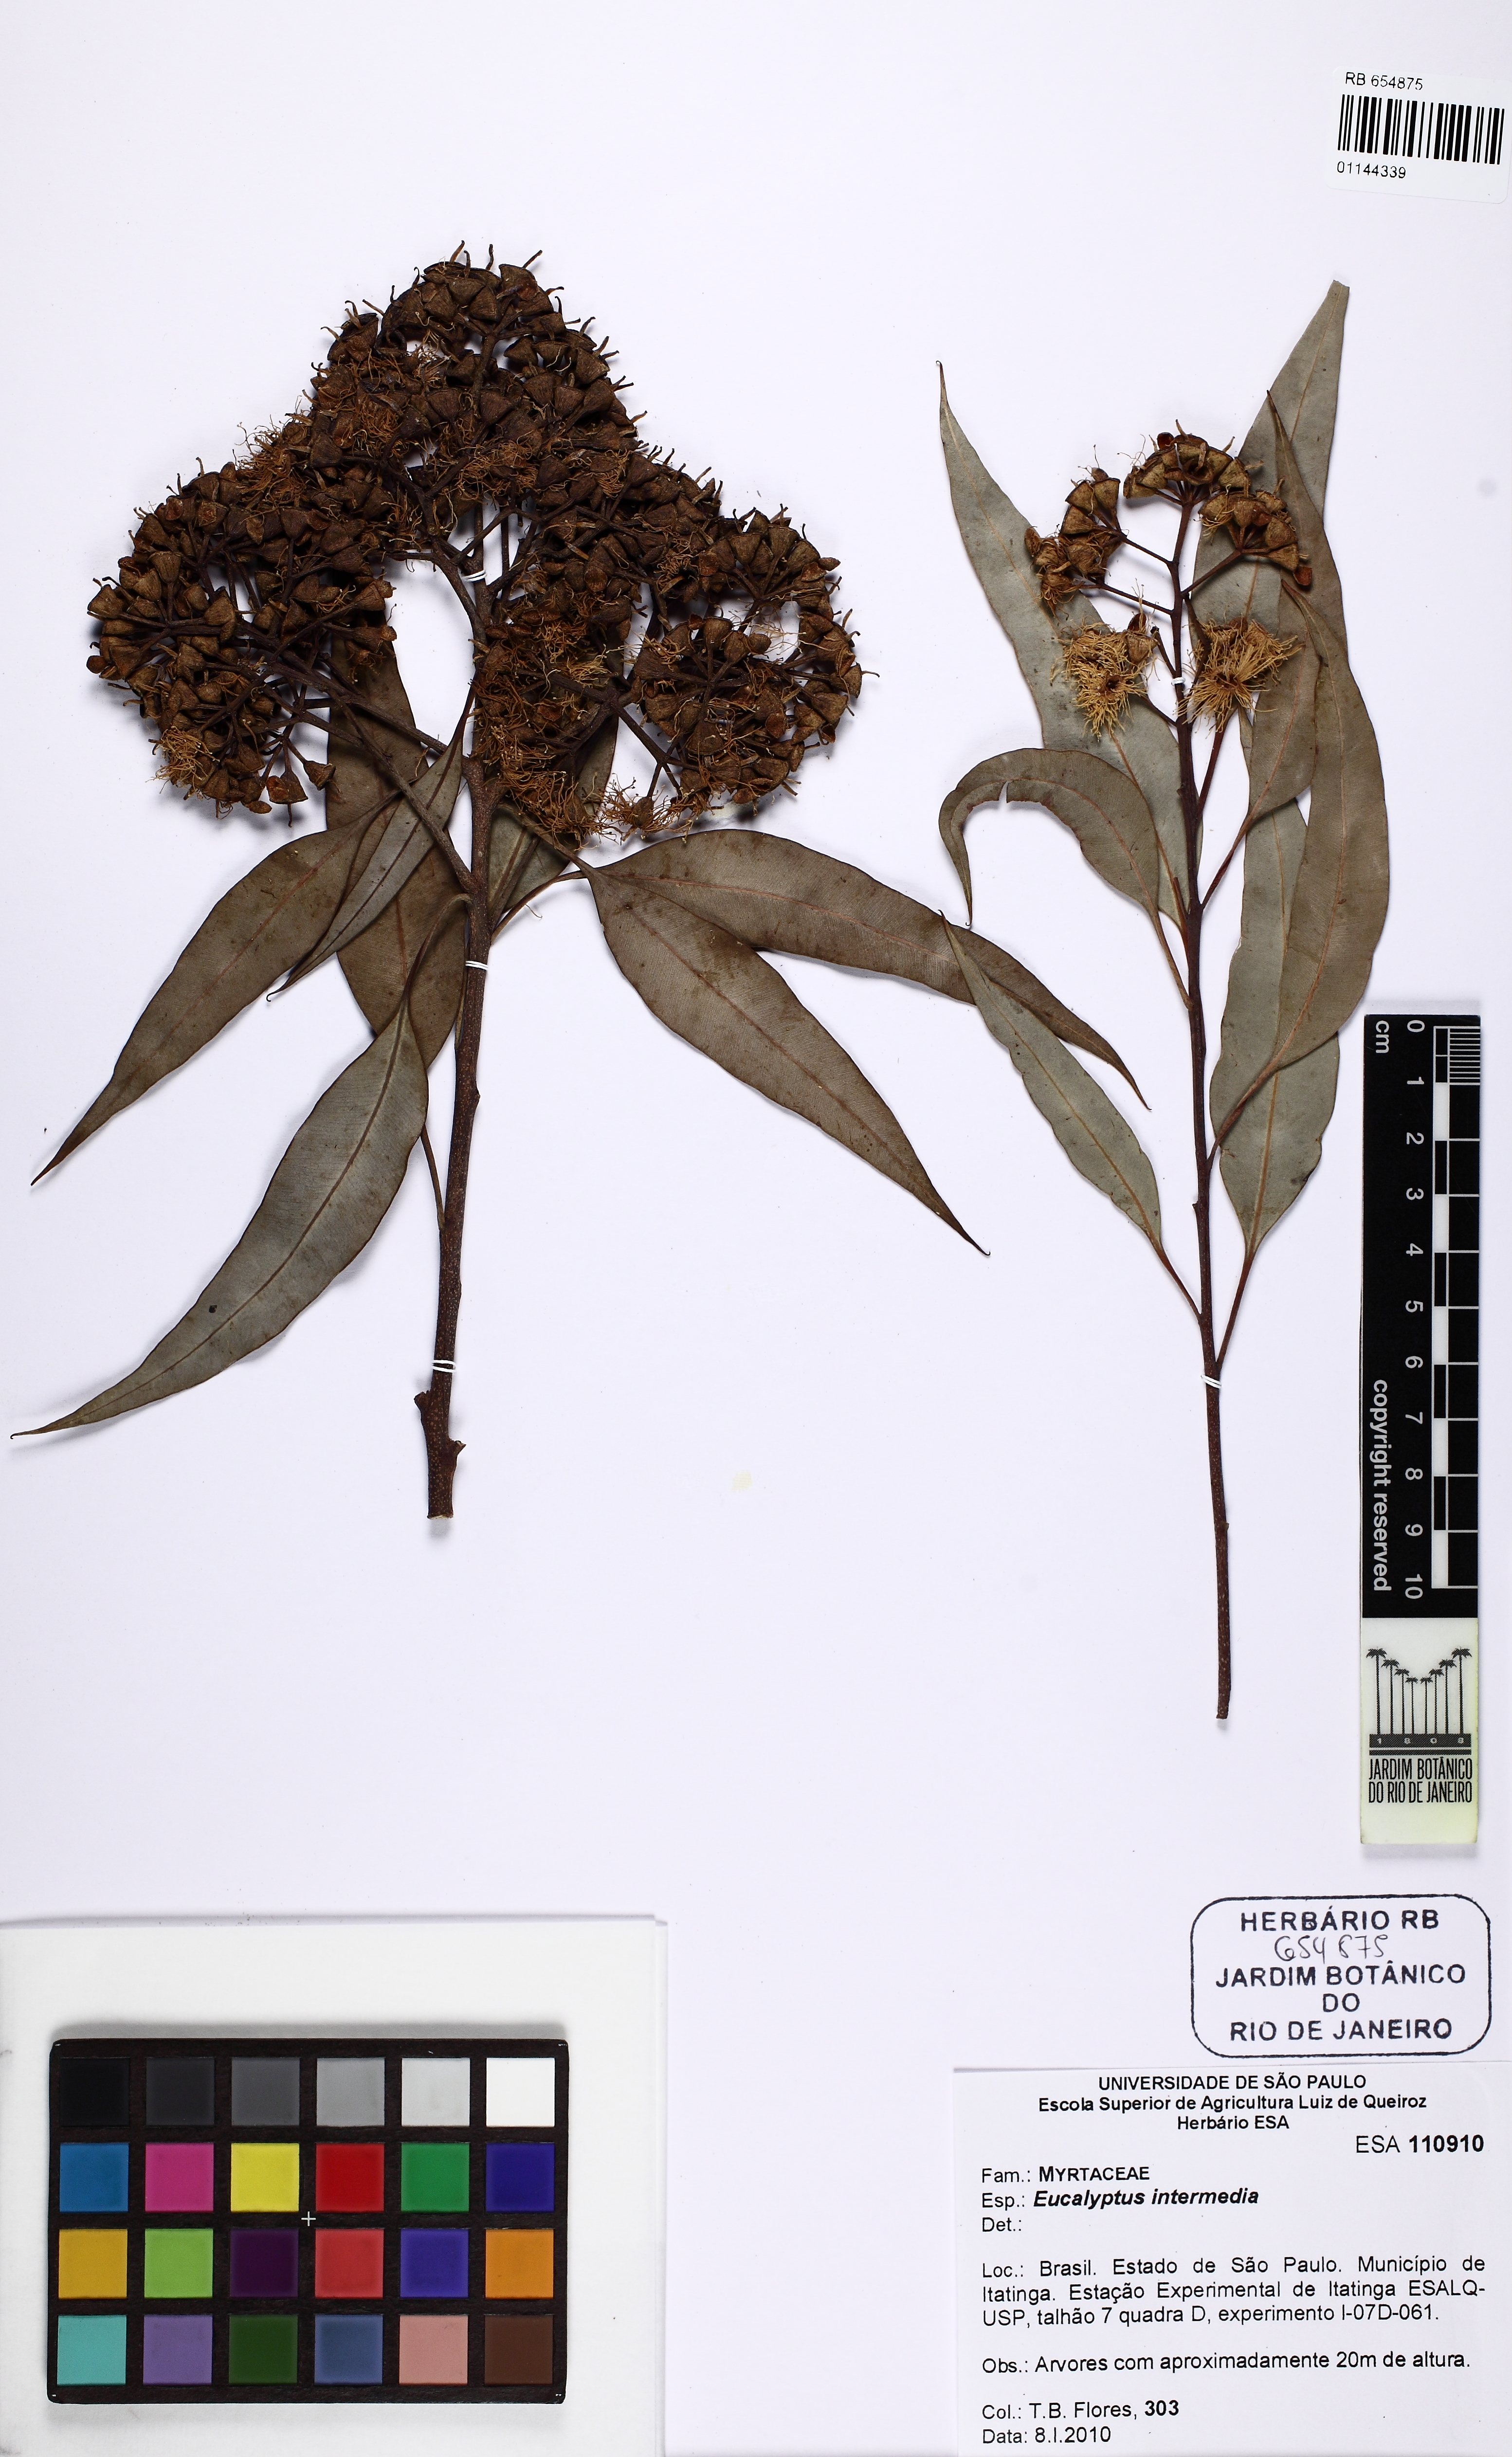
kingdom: Plantae
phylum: Tracheophyta
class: Magnoliopsida
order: Myrtales
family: Myrtaceae
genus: Corymbia
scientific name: Corymbia intermedia
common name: Pink-bloodwood
